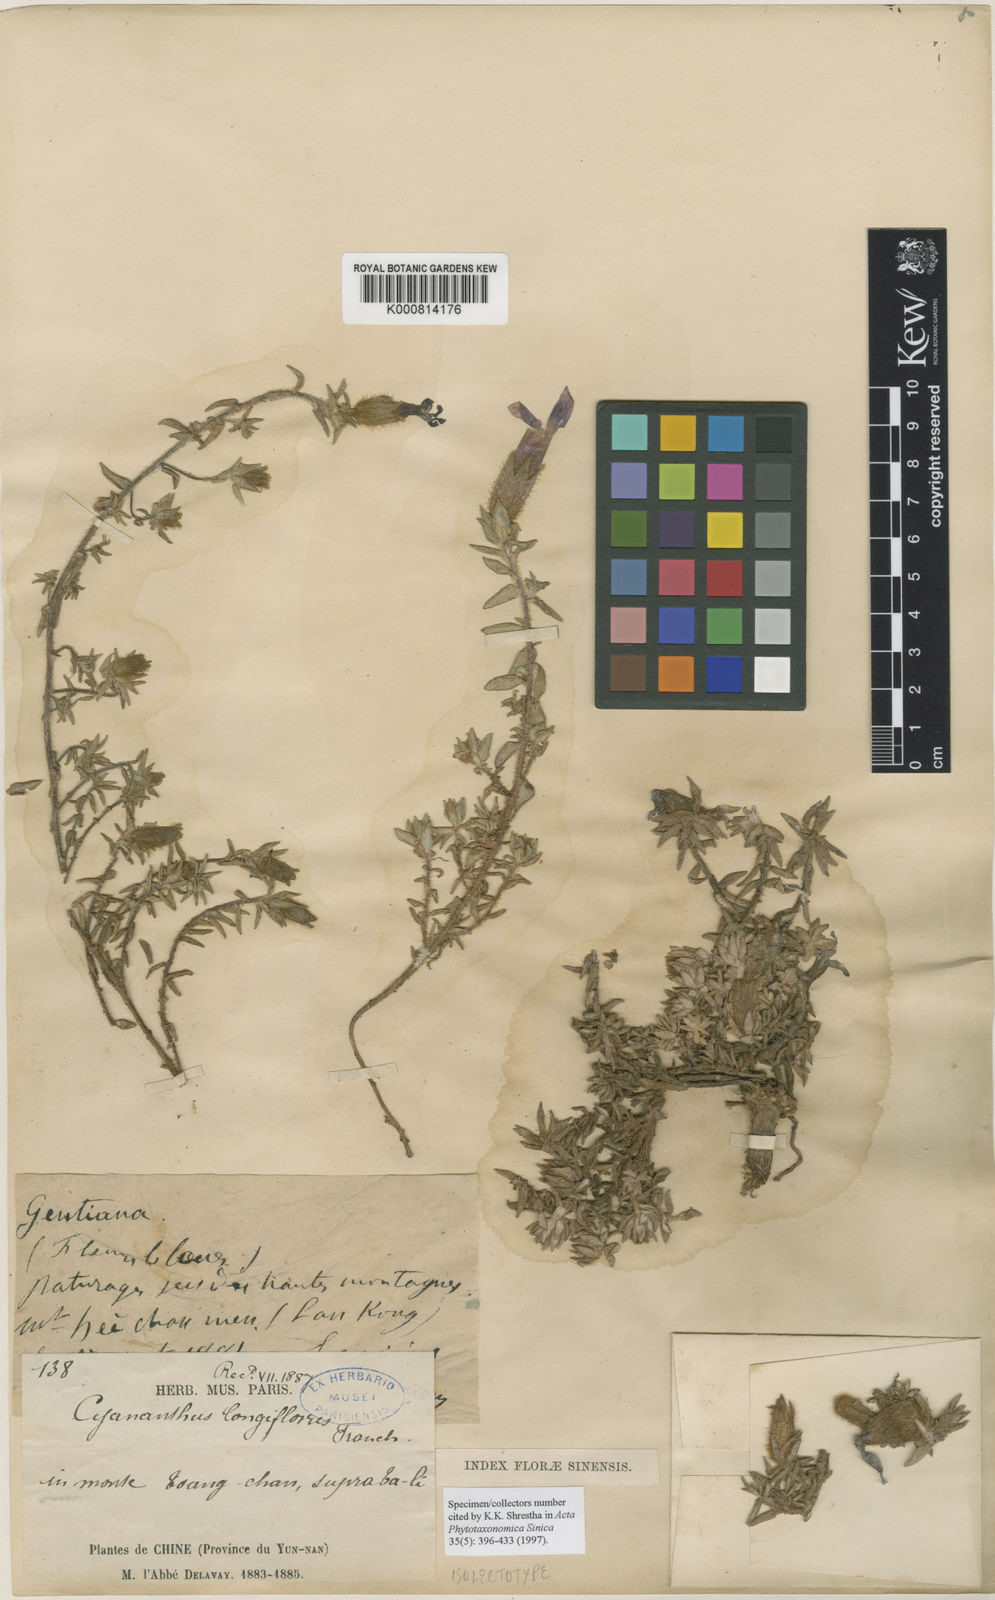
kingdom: Plantae
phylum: Tracheophyta
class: Magnoliopsida
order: Asterales
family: Campanulaceae
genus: Cyananthus
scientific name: Cyananthus longiflorus
